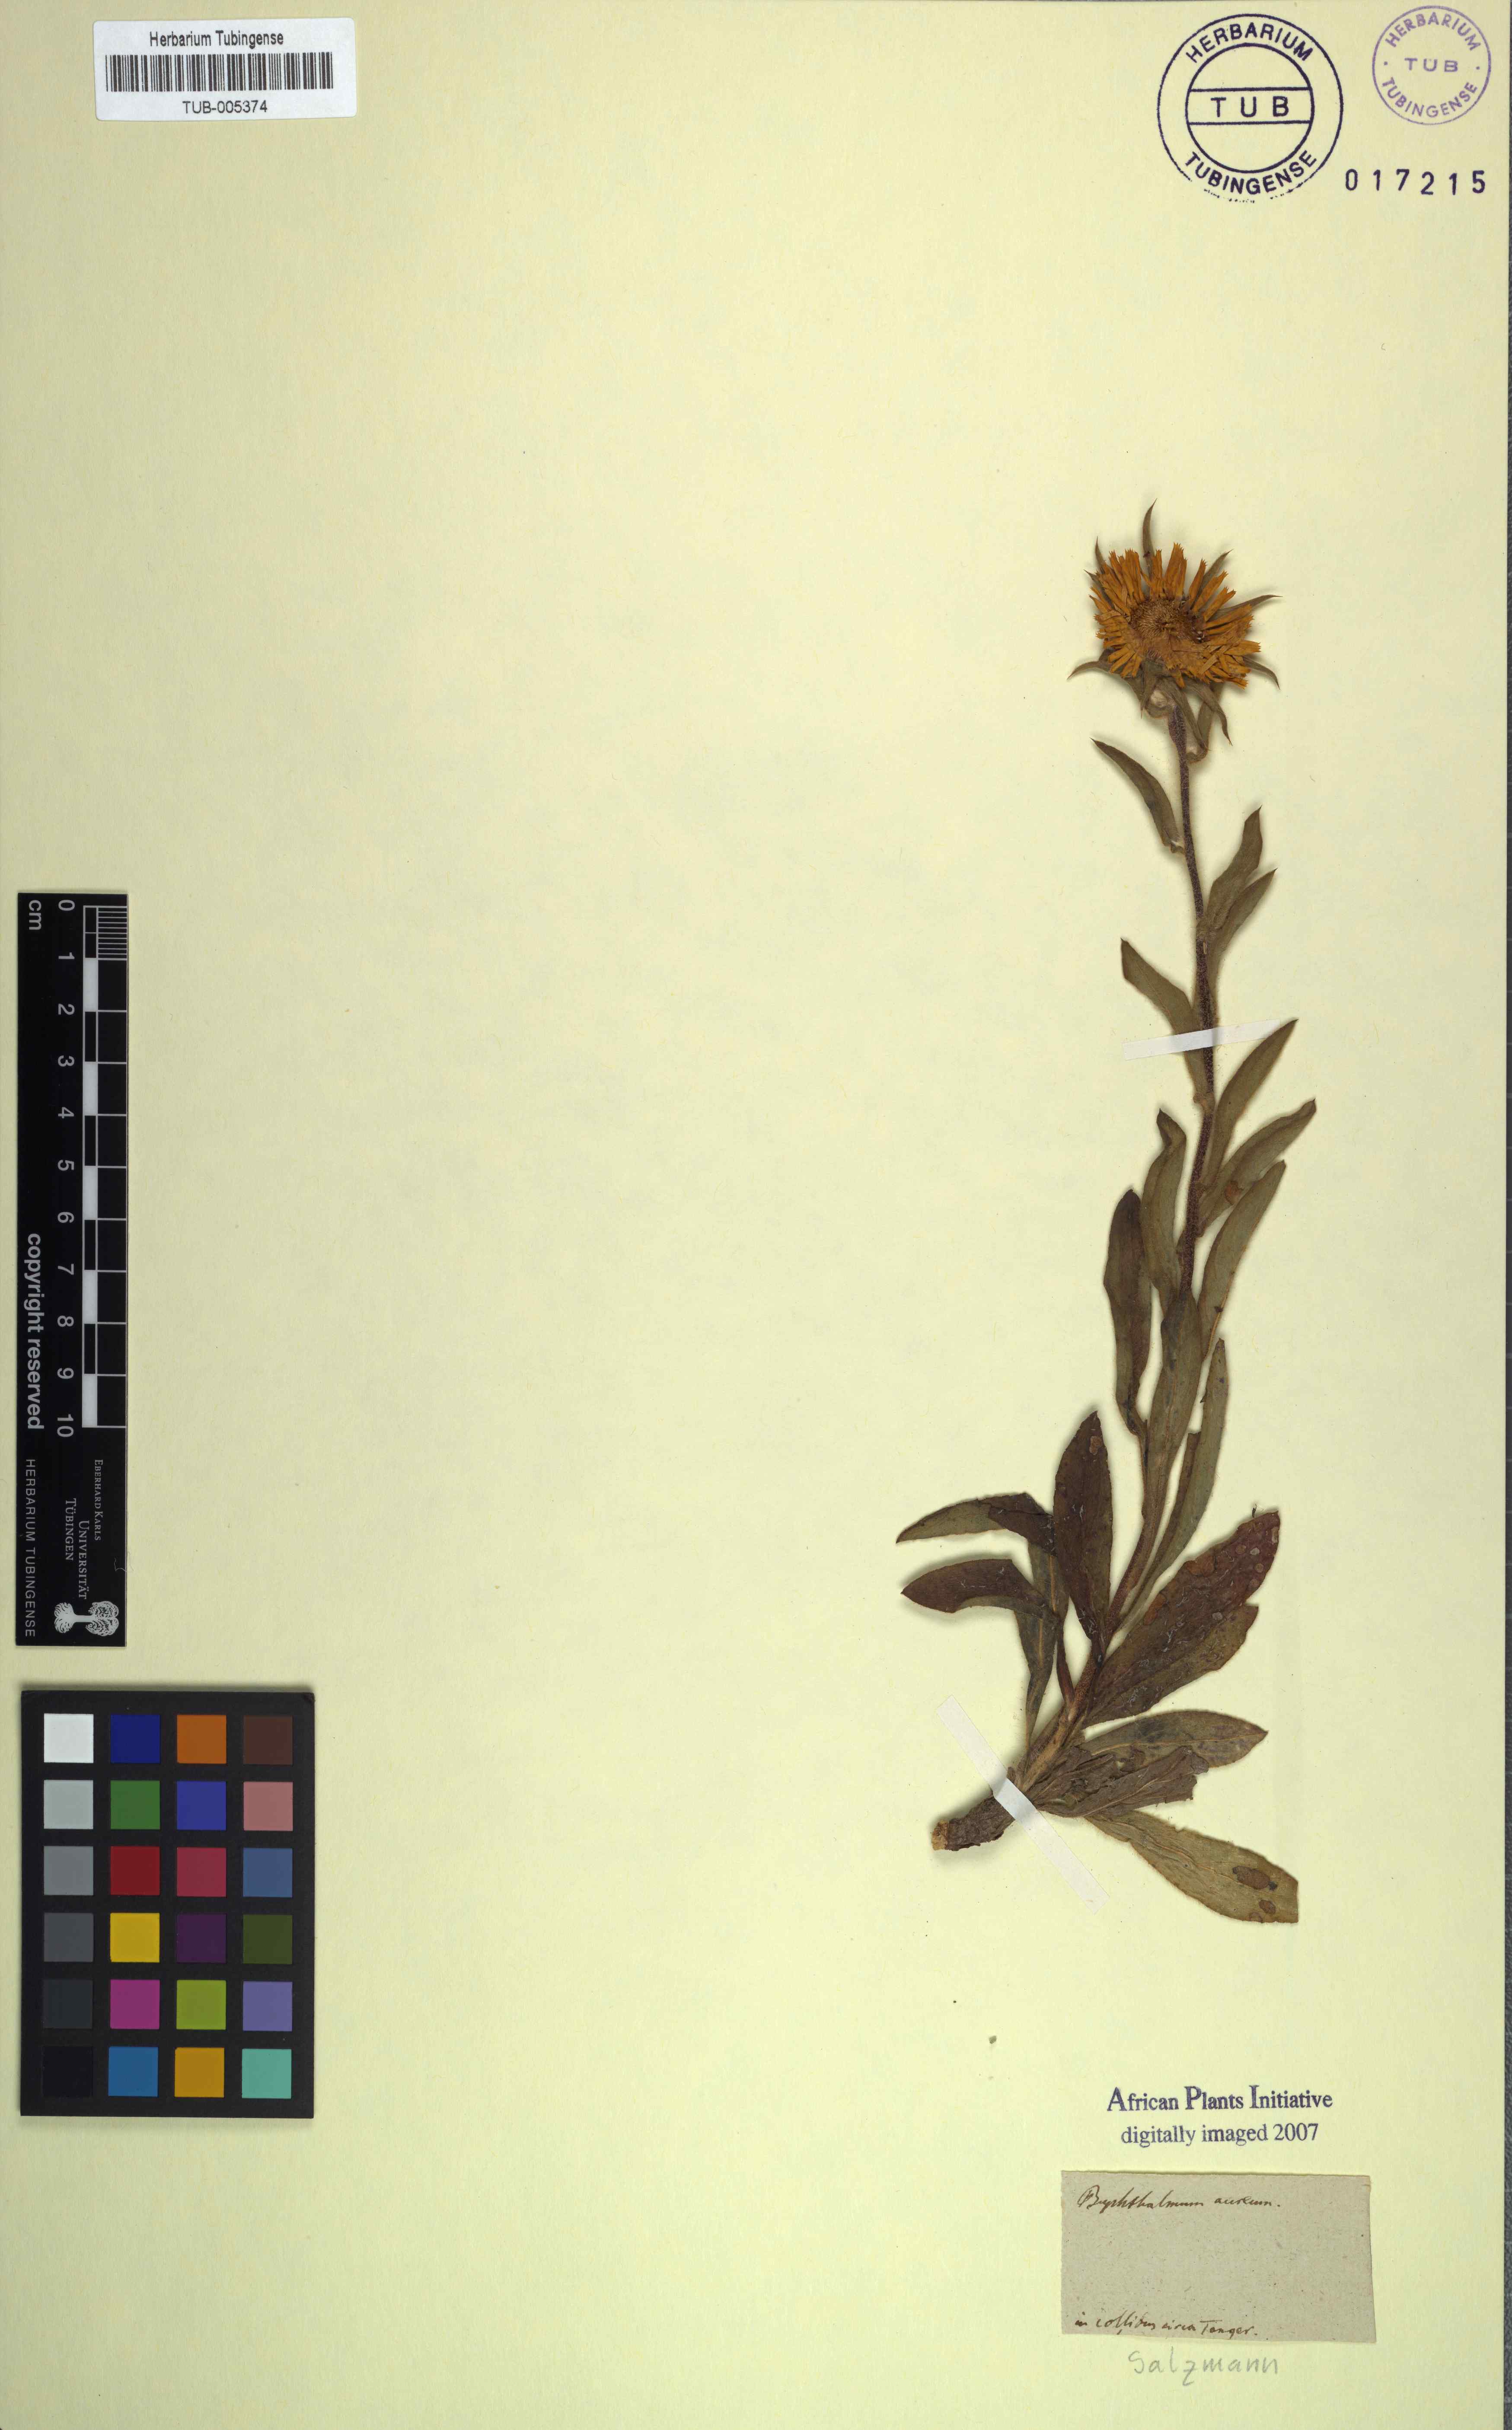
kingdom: Plantae
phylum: Tracheophyta
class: Magnoliopsida
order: Asterales
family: Asteraceae
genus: Pallenis
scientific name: Pallenis spinosa
